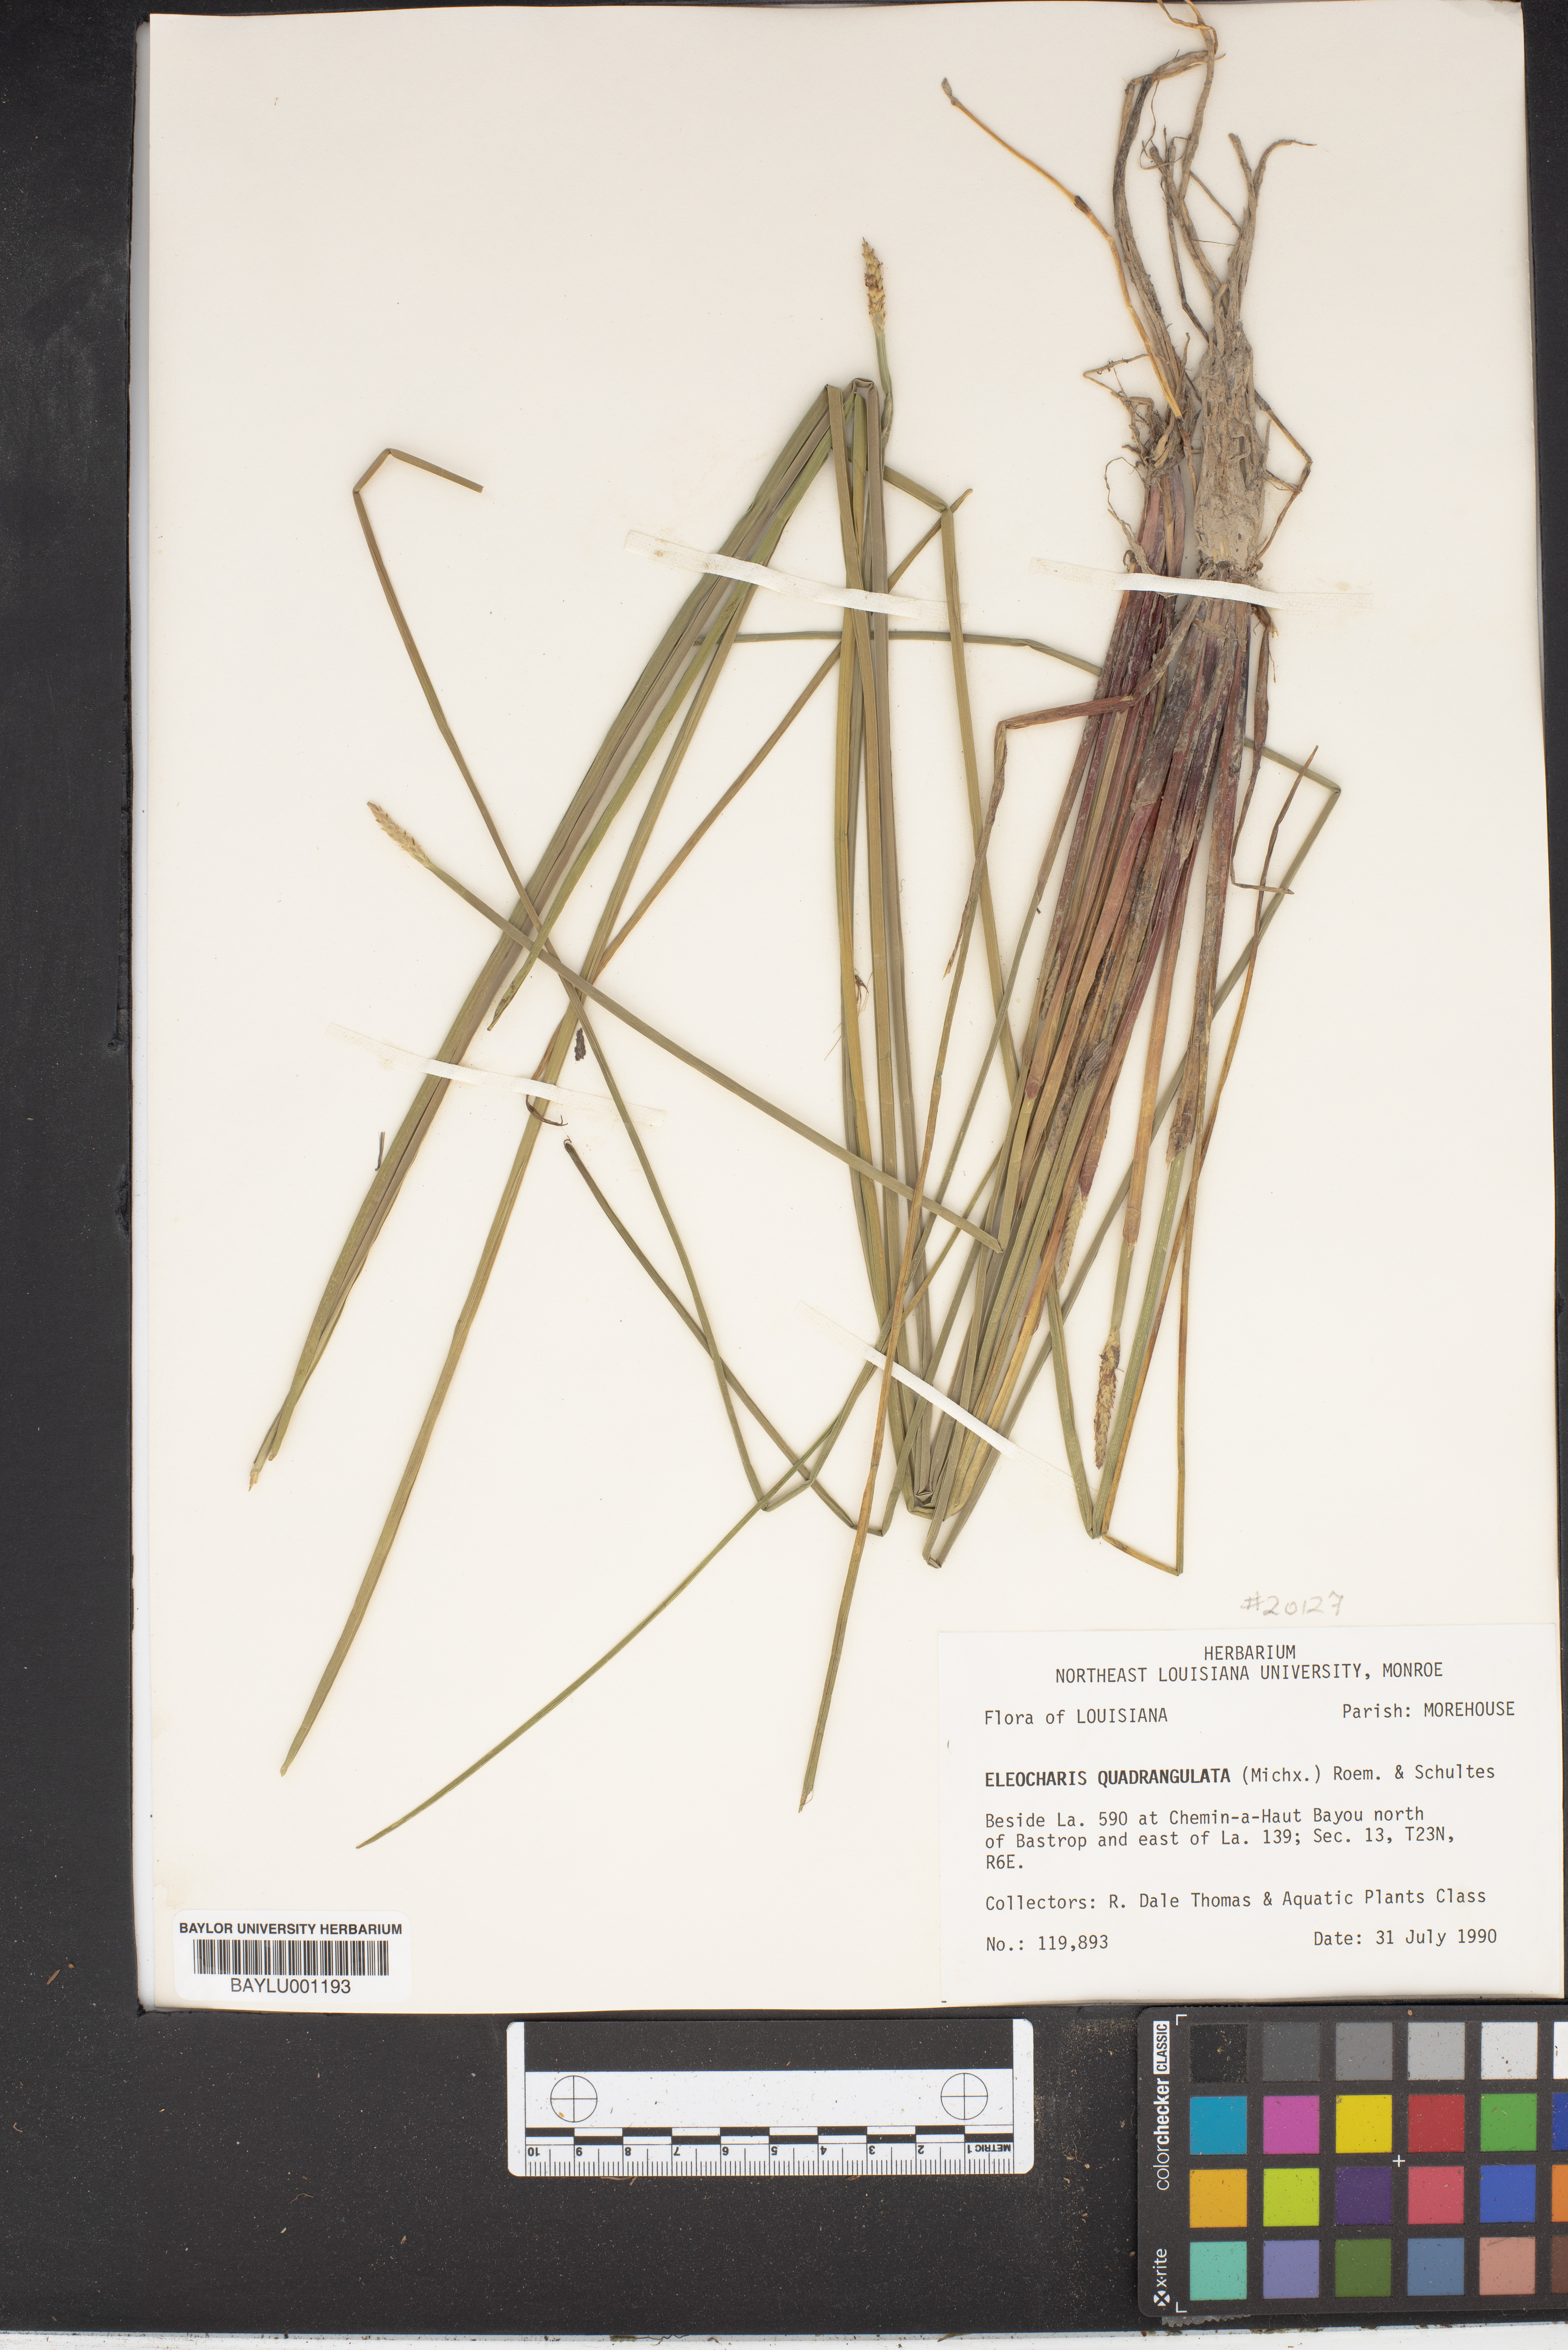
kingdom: Plantae
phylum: Tracheophyta
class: Liliopsida
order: Poales
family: Cyperaceae
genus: Eleocharis
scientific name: Eleocharis quadrangulata
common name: Square-stem spike-rush
